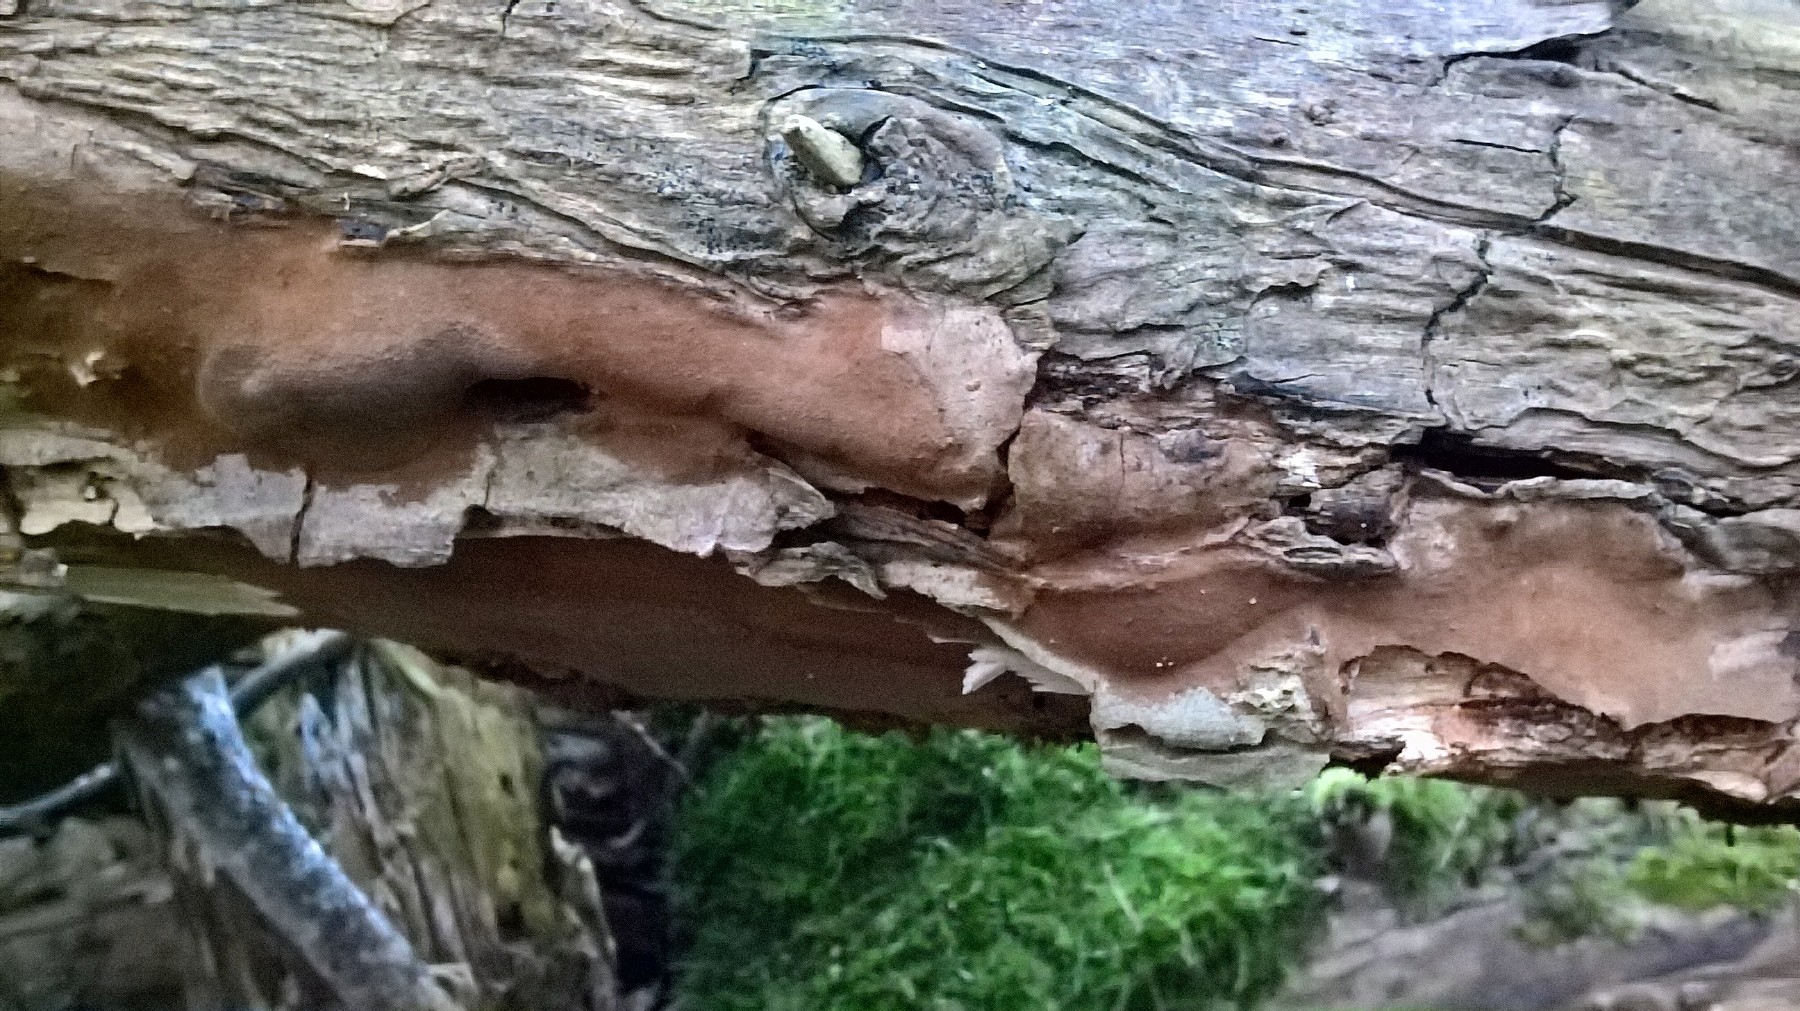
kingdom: Fungi
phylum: Basidiomycota
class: Agaricomycetes
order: Hymenochaetales
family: Hymenochaetaceae
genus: Fomitiporia
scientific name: Fomitiporia punctata
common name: pude-ildporesvamp
